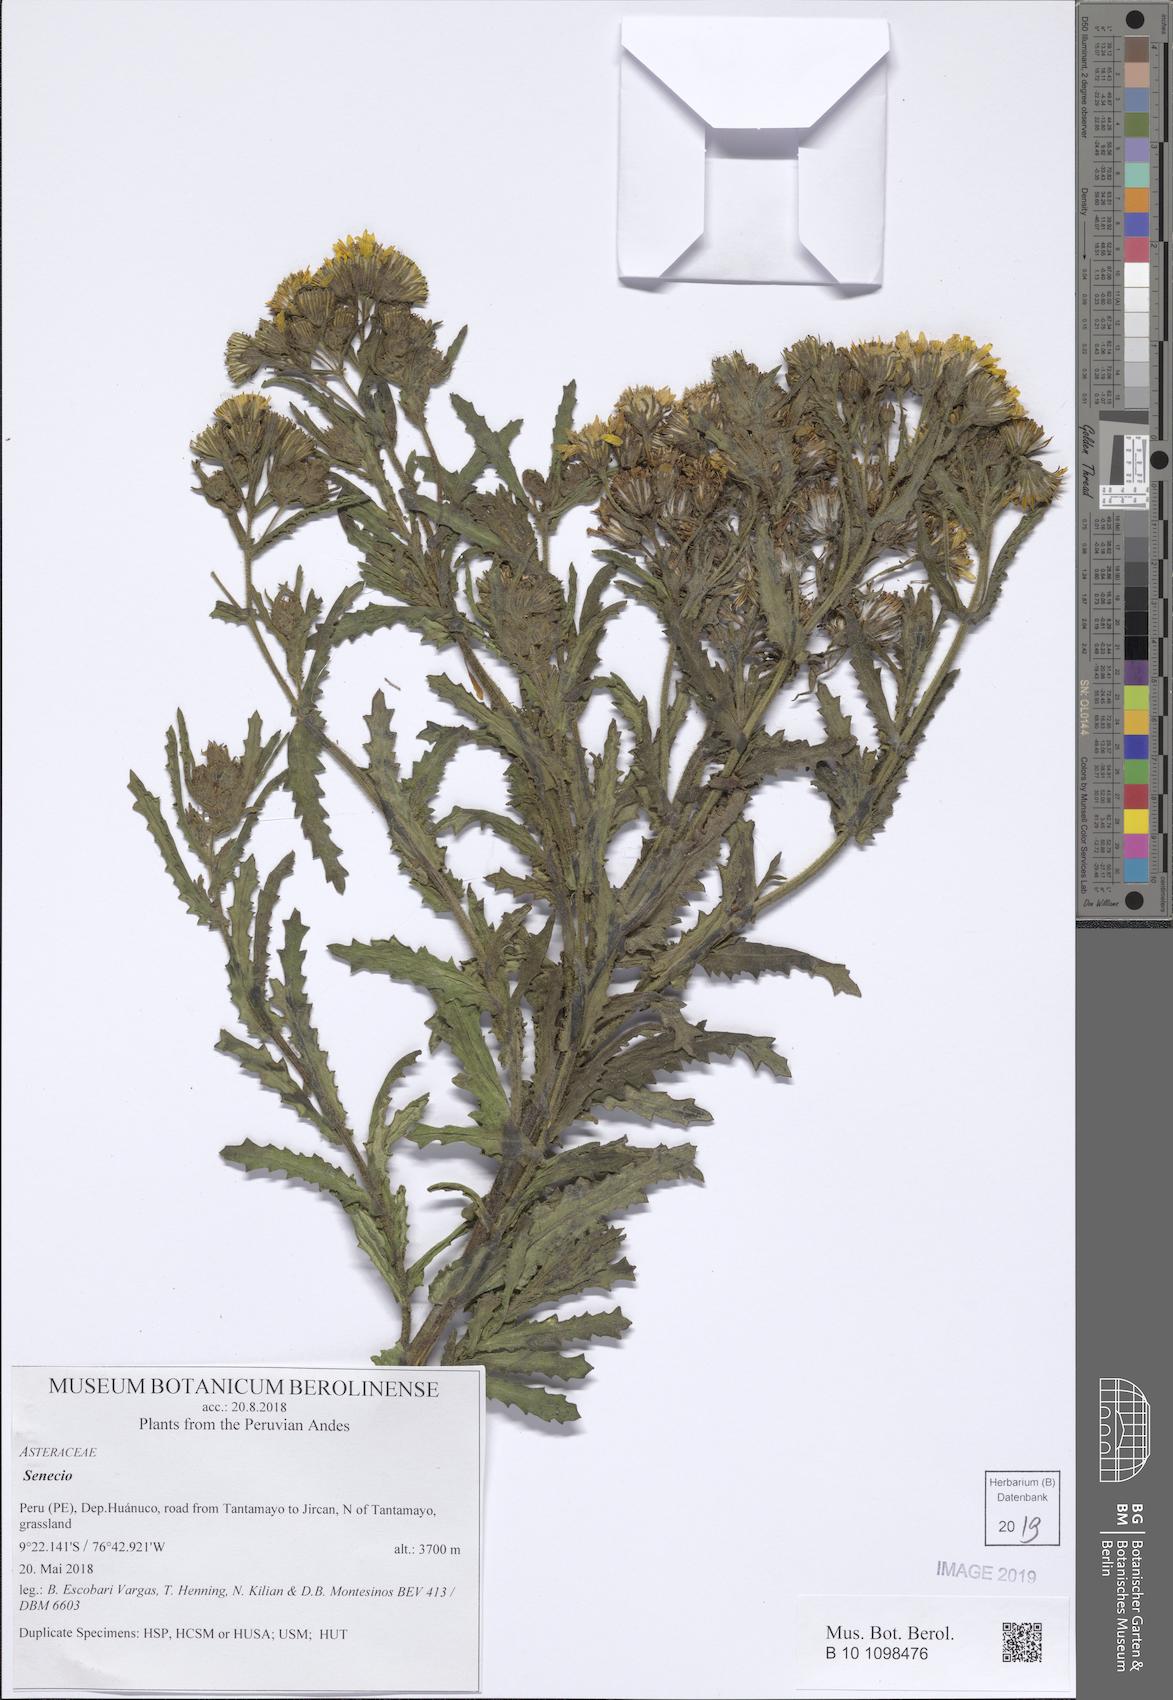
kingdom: Plantae
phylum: Tracheophyta
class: Magnoliopsida
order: Asterales
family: Asteraceae
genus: Senecio
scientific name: Senecio agapatensis
